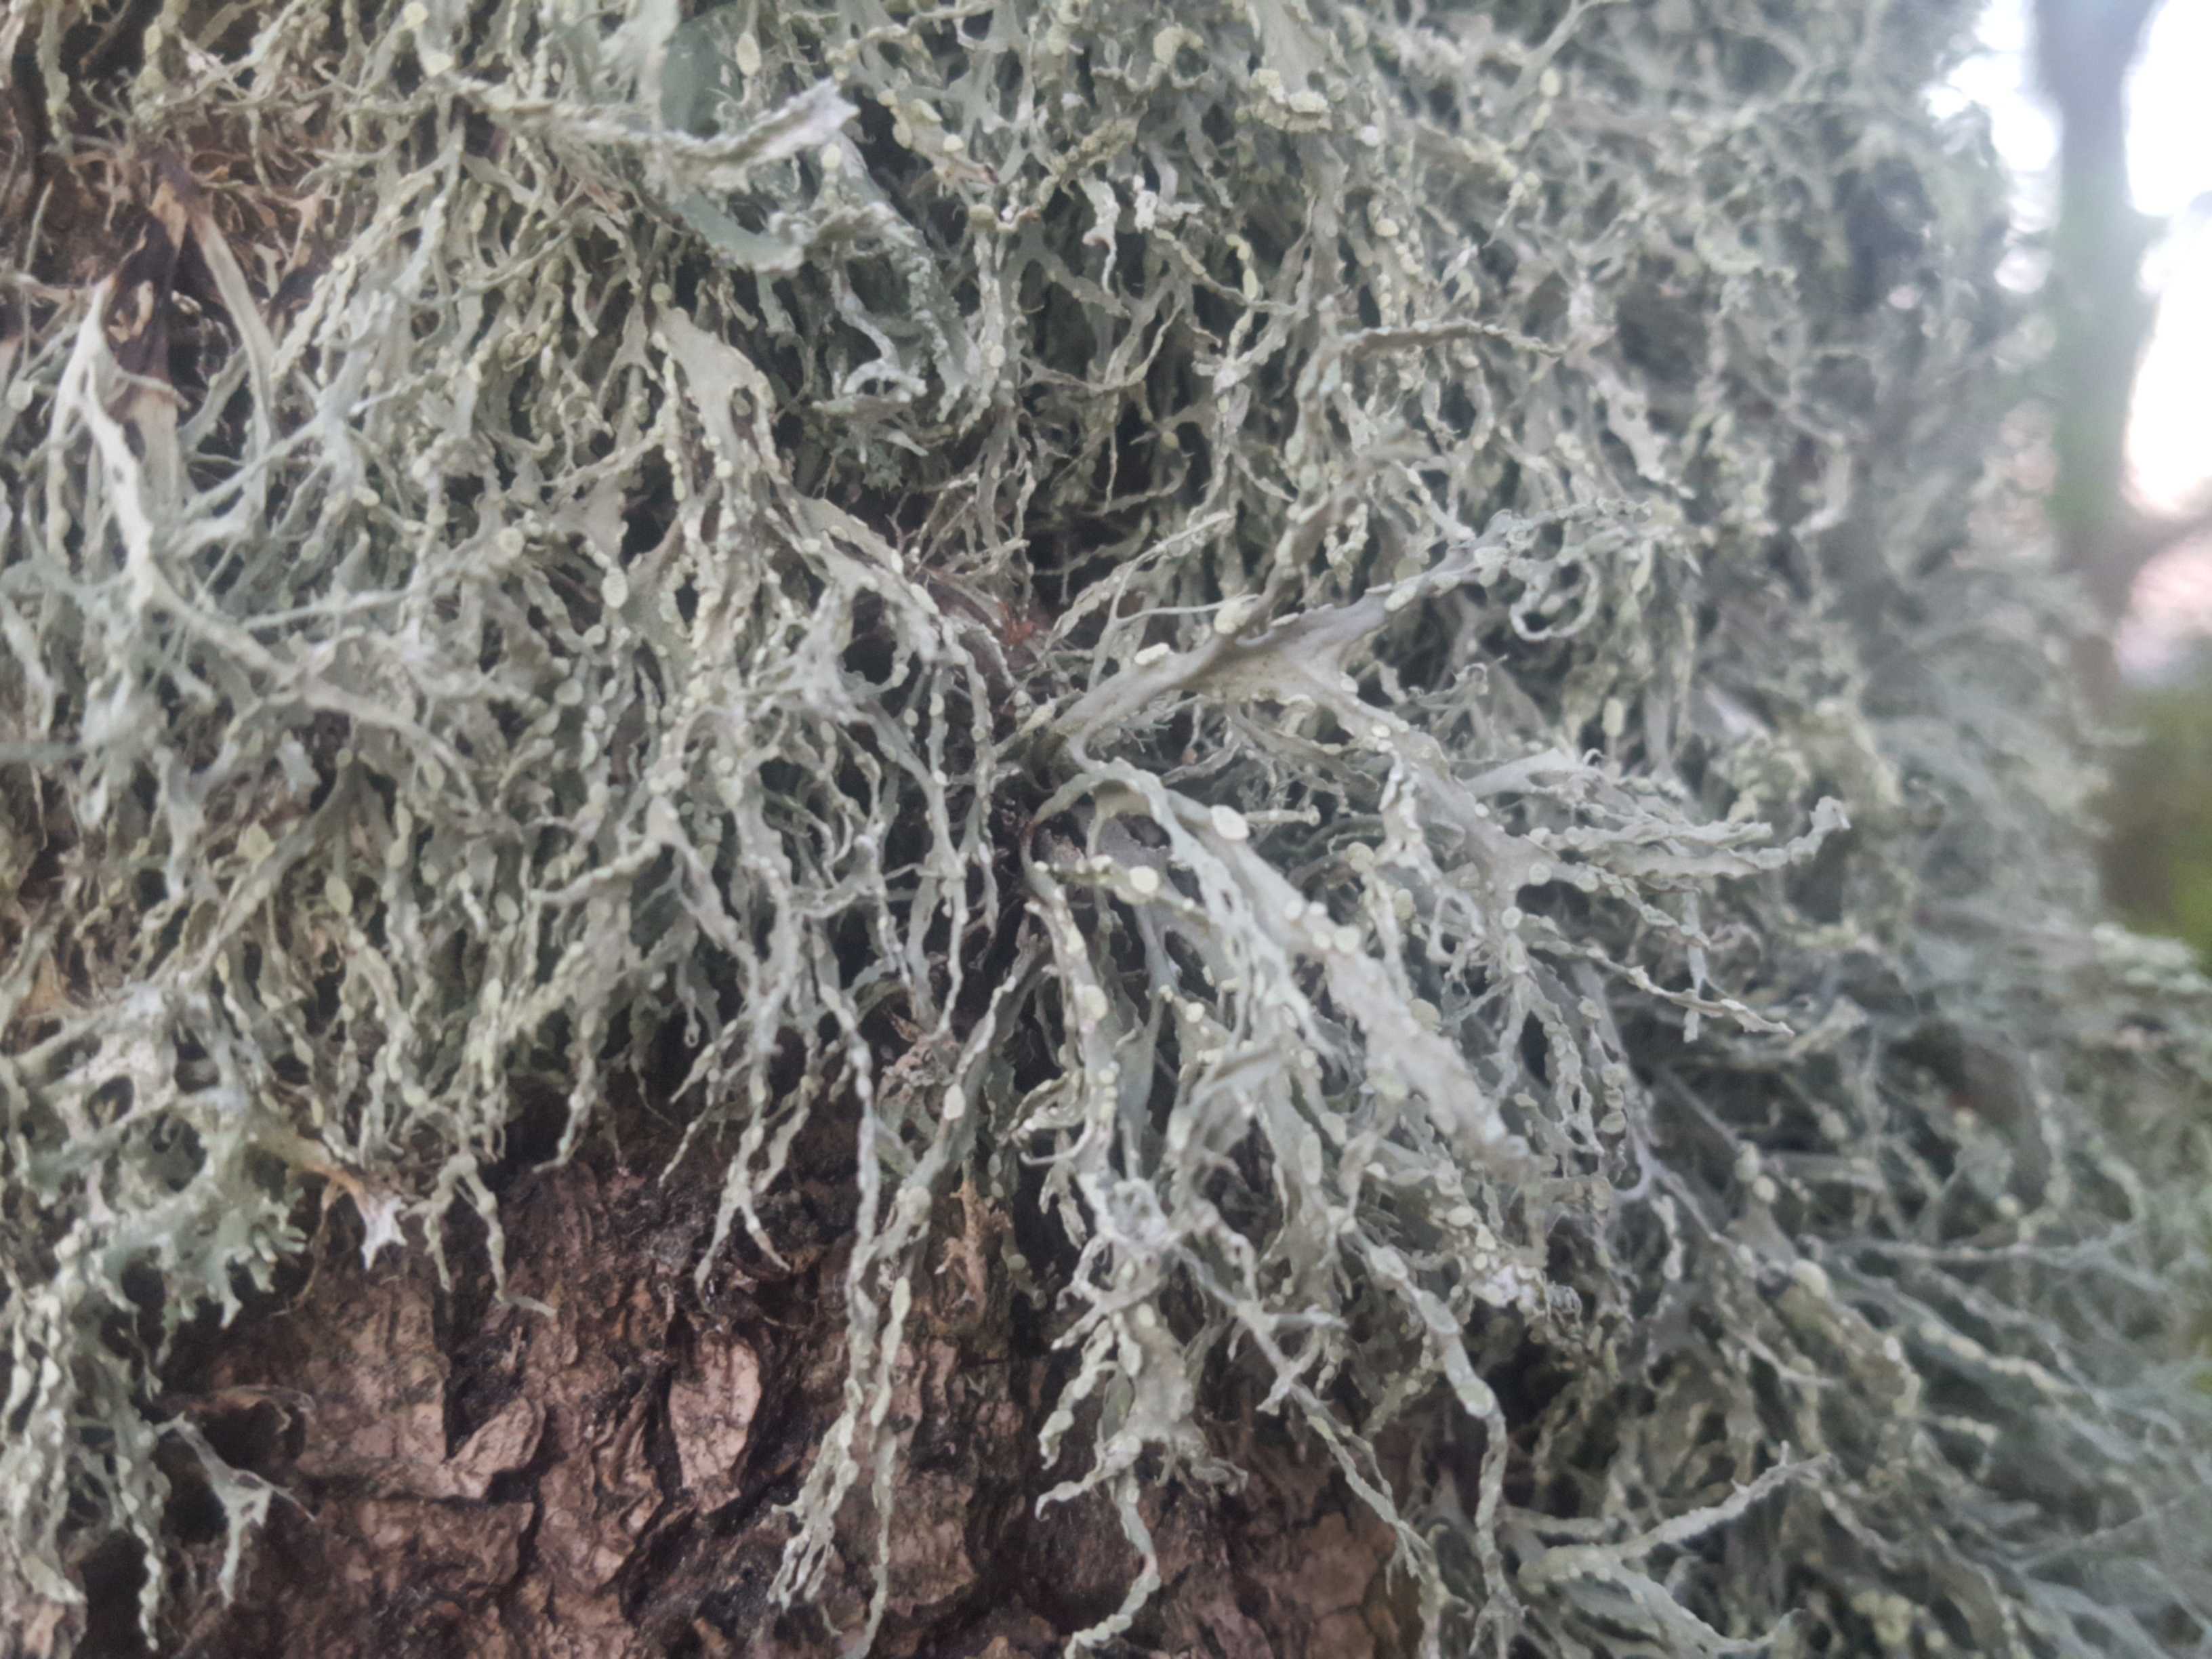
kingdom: Fungi
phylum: Ascomycota
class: Lecanoromycetes
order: Lecanorales
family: Ramalinaceae
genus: Ramalina
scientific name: Ramalina farinacea
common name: melet grenlav
